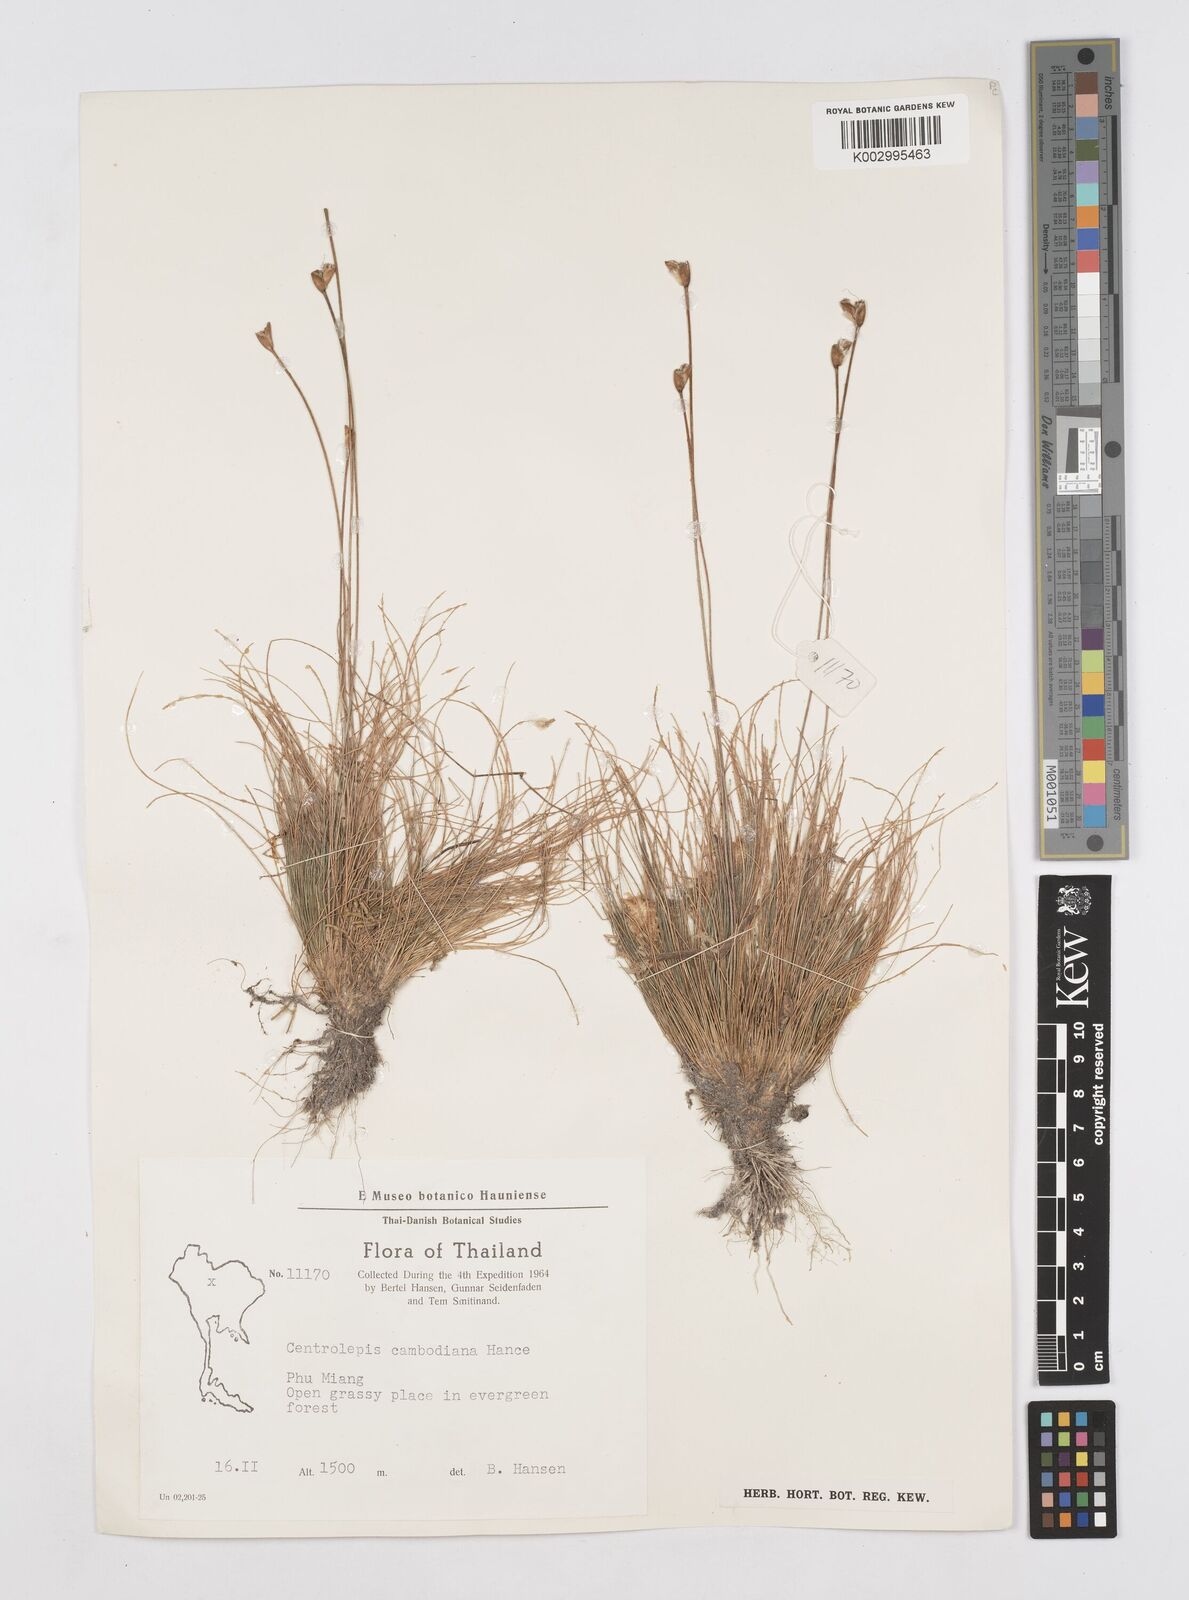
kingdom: Plantae
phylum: Tracheophyta
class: Liliopsida
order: Poales
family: Restionaceae
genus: Centrolepis
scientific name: Centrolepis cambodiana
